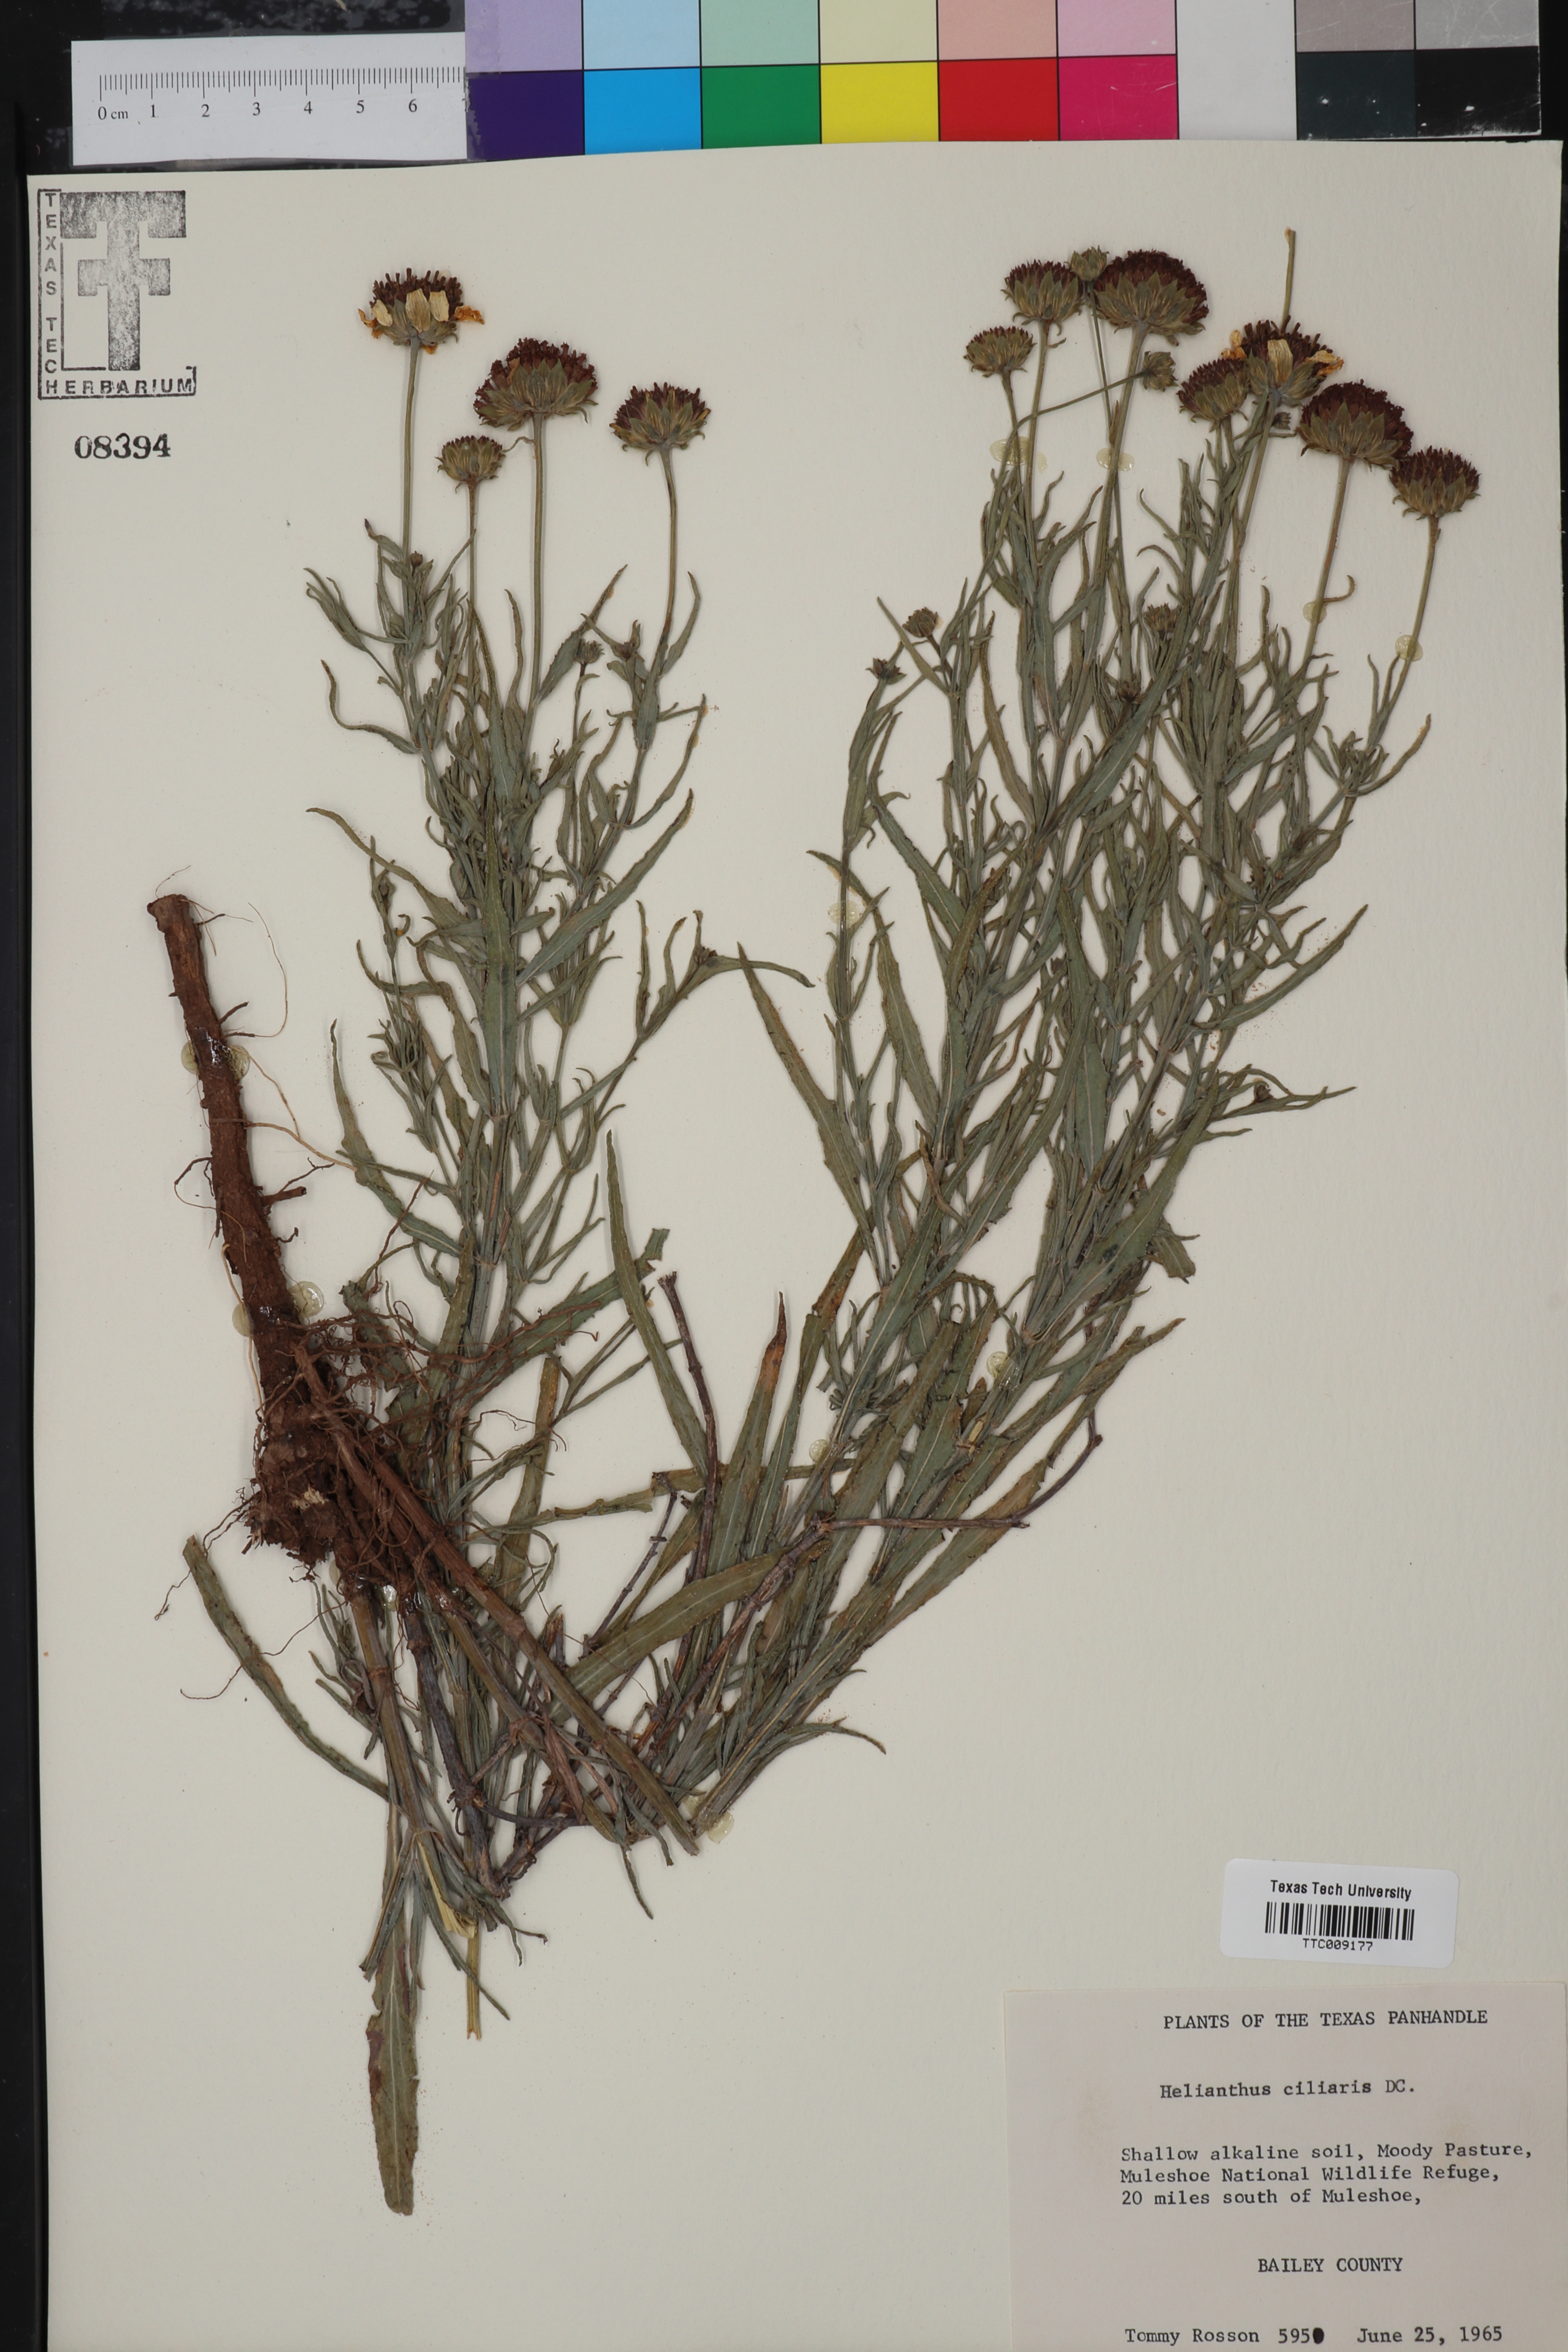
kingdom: Plantae
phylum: Tracheophyta
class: Magnoliopsida
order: Asterales
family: Asteraceae
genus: Helianthus
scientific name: Helianthus ciliaris
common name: Texas blueweed
